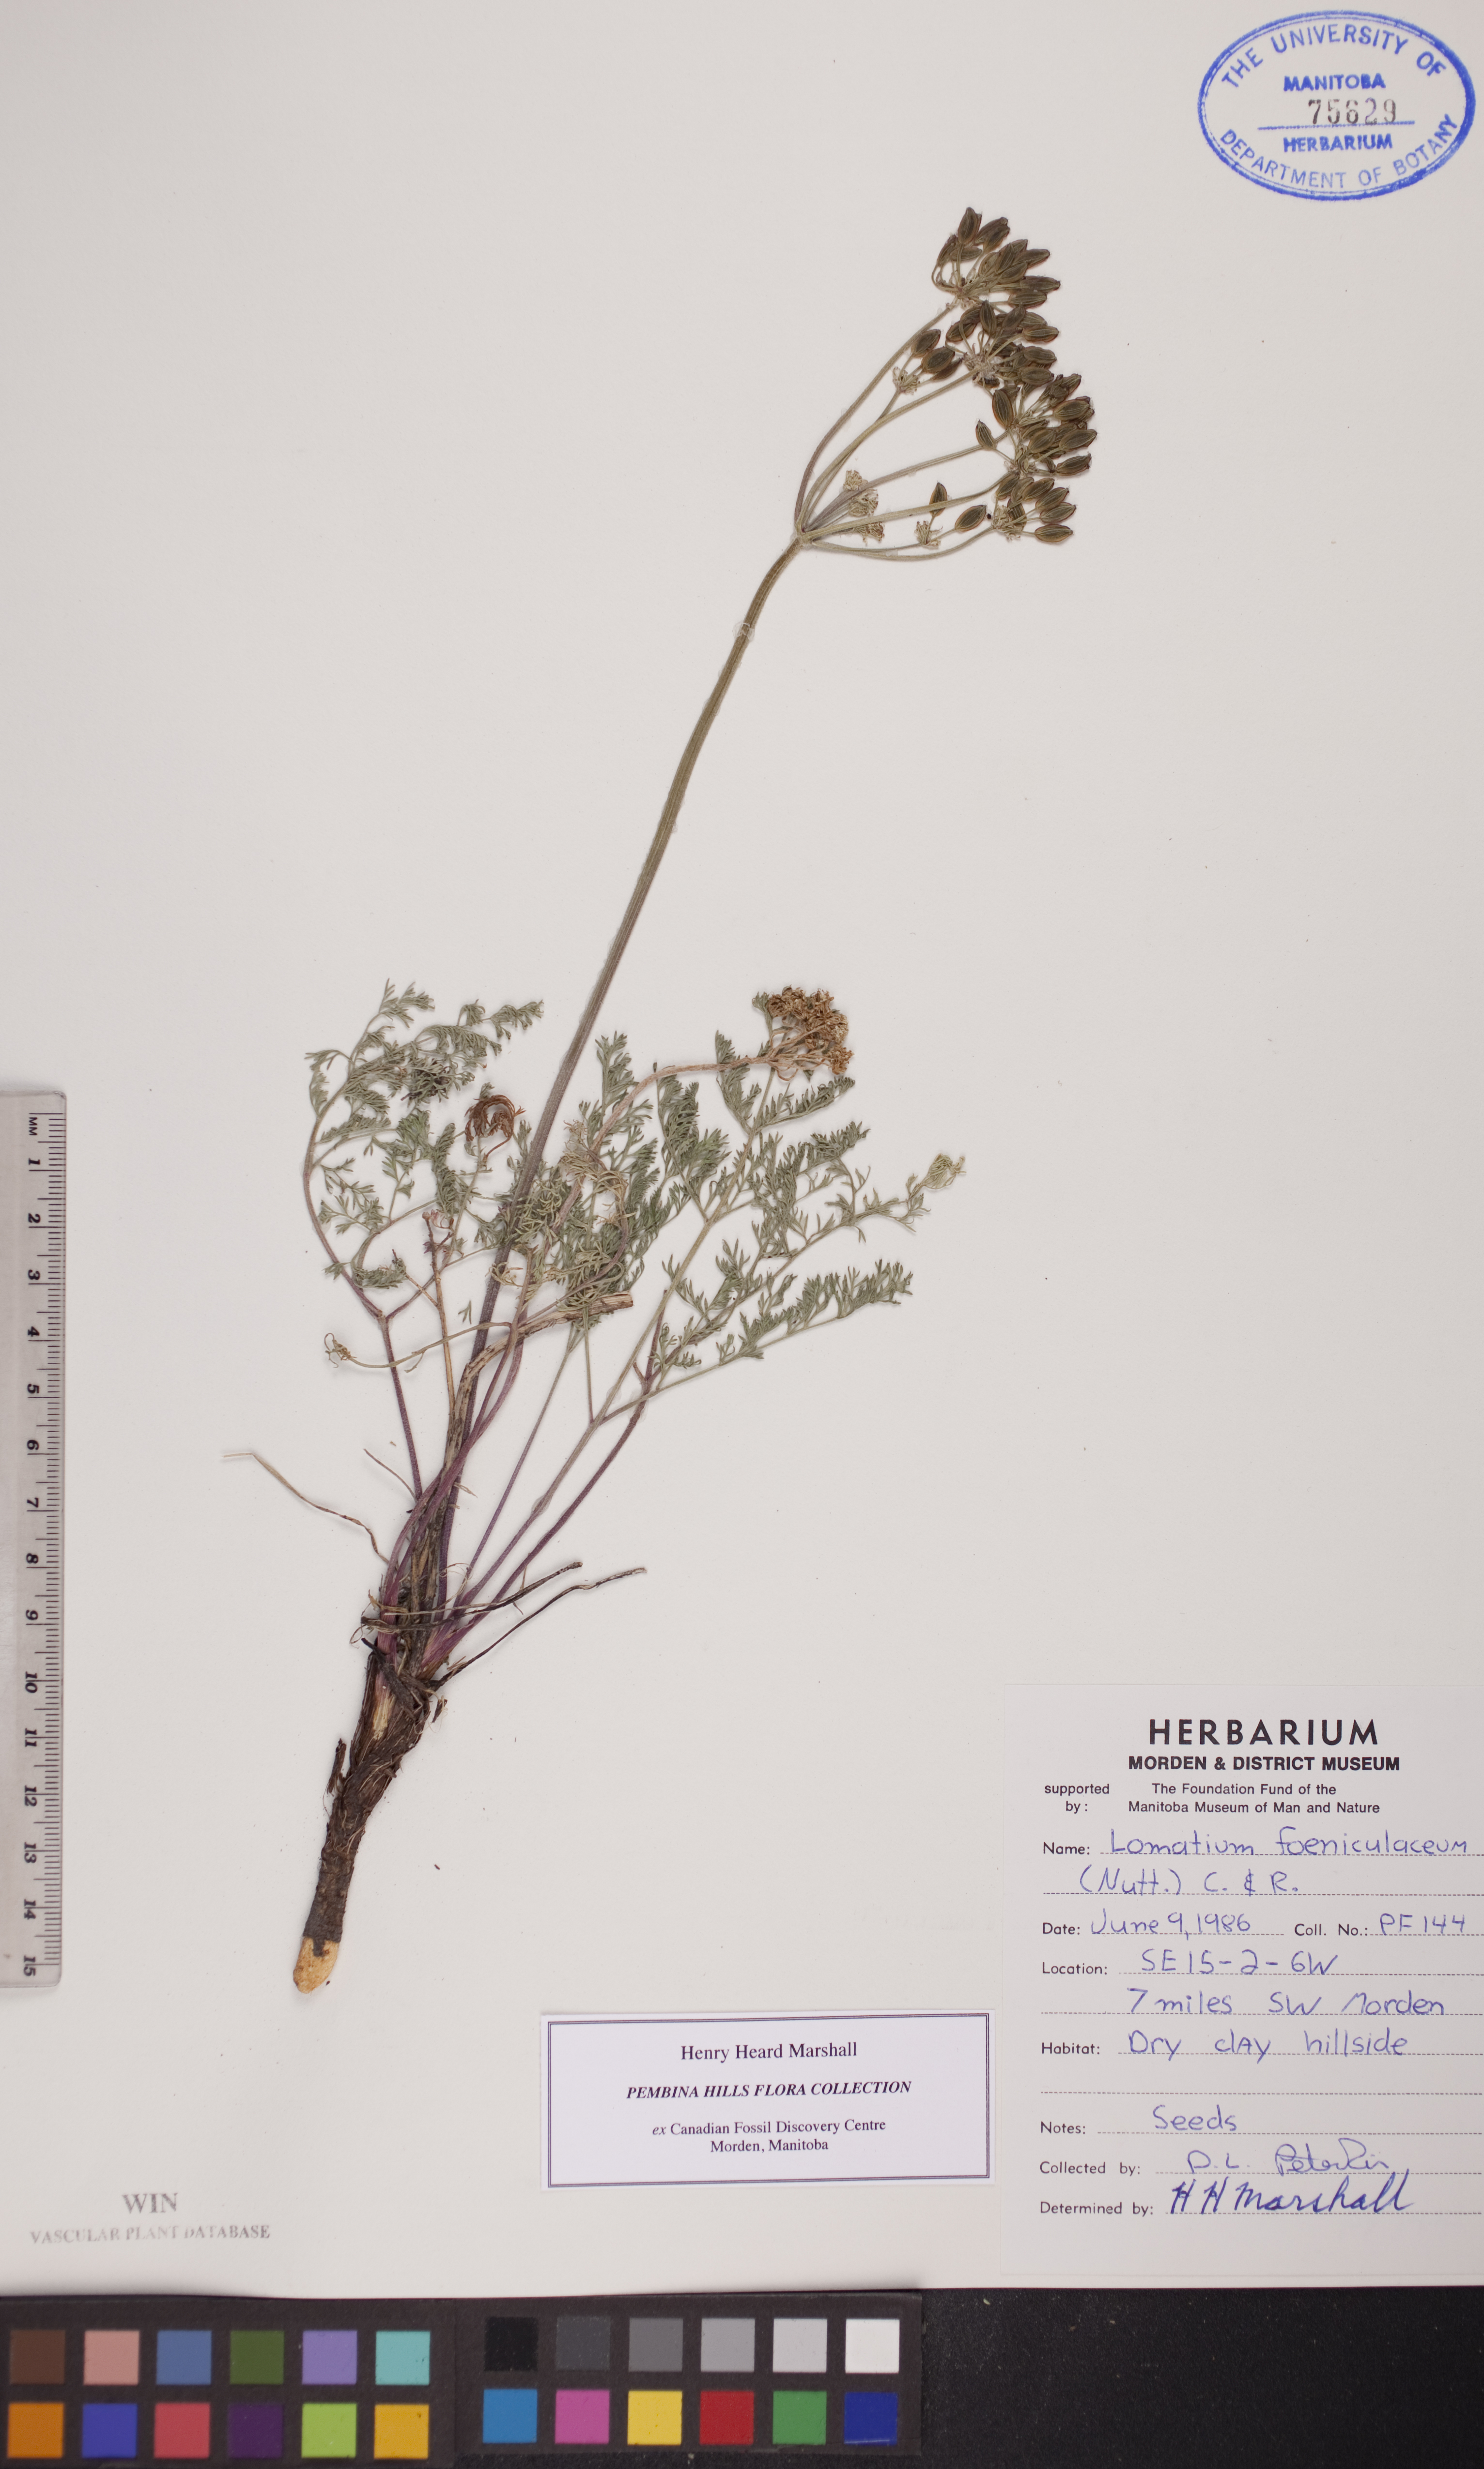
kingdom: Plantae
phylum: Tracheophyta
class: Magnoliopsida
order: Apiales
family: Apiaceae
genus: Lomatium
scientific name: Lomatium foeniculaceum
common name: Desert-parsley
